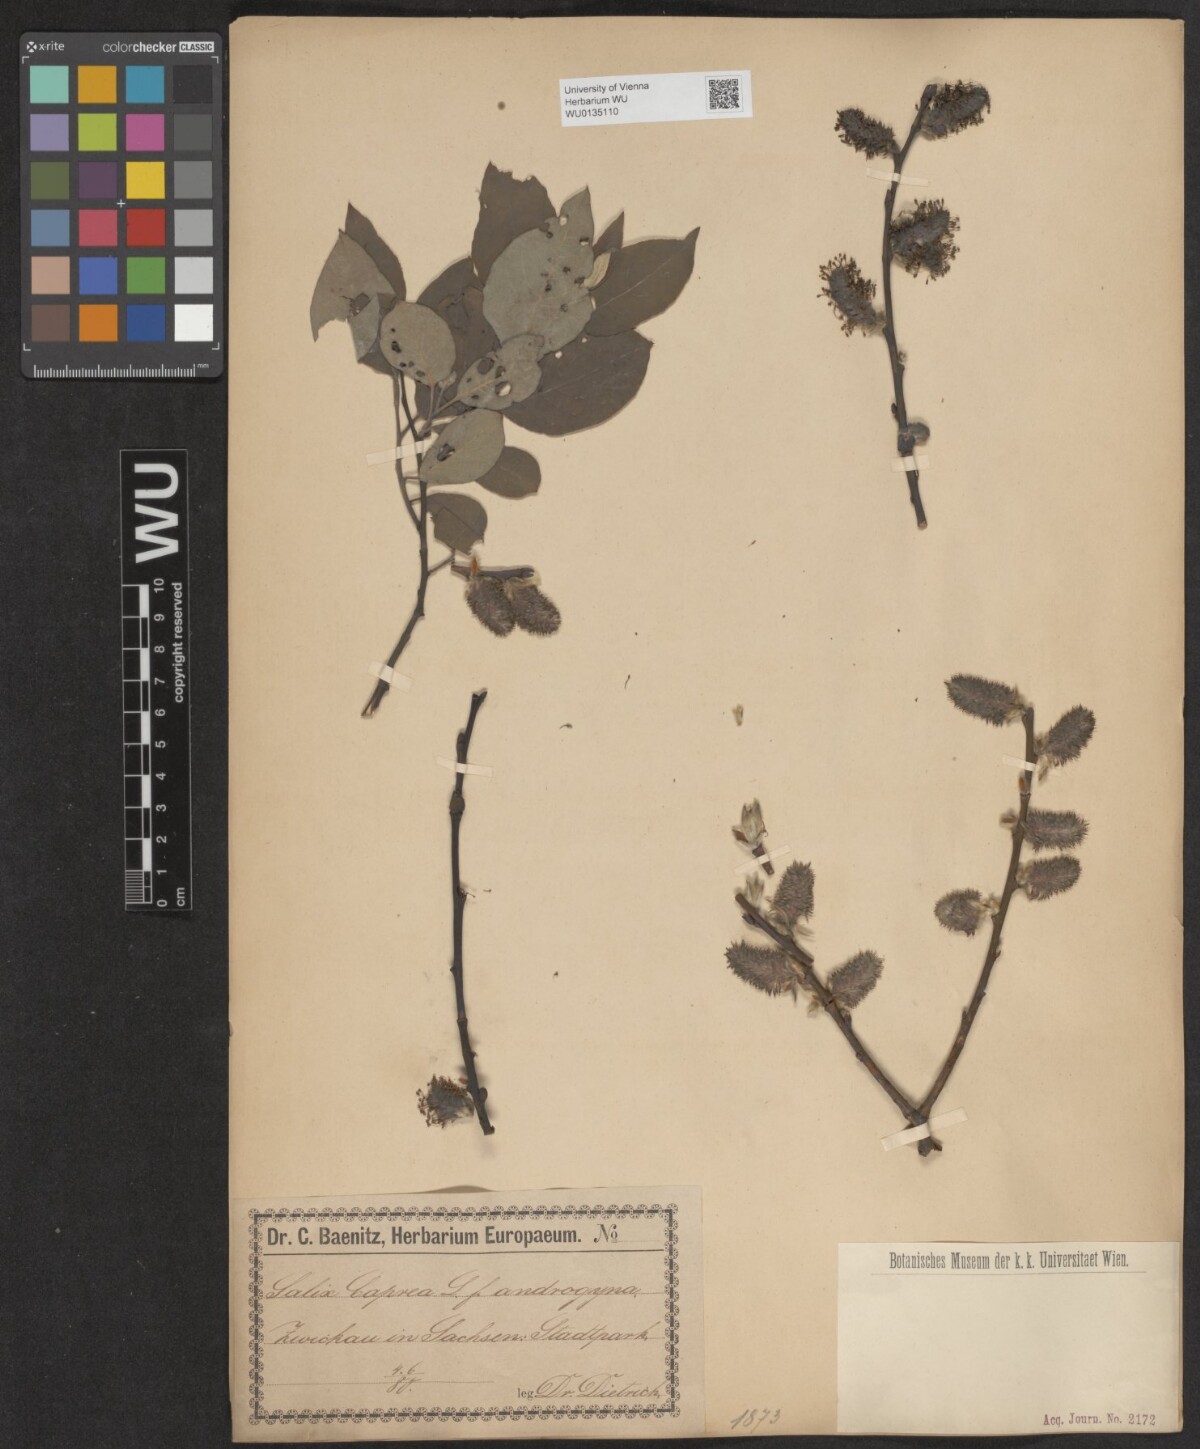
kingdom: Plantae
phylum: Tracheophyta
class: Magnoliopsida
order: Malpighiales
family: Salicaceae
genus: Salix
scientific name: Salix caprea
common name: Goat willow
